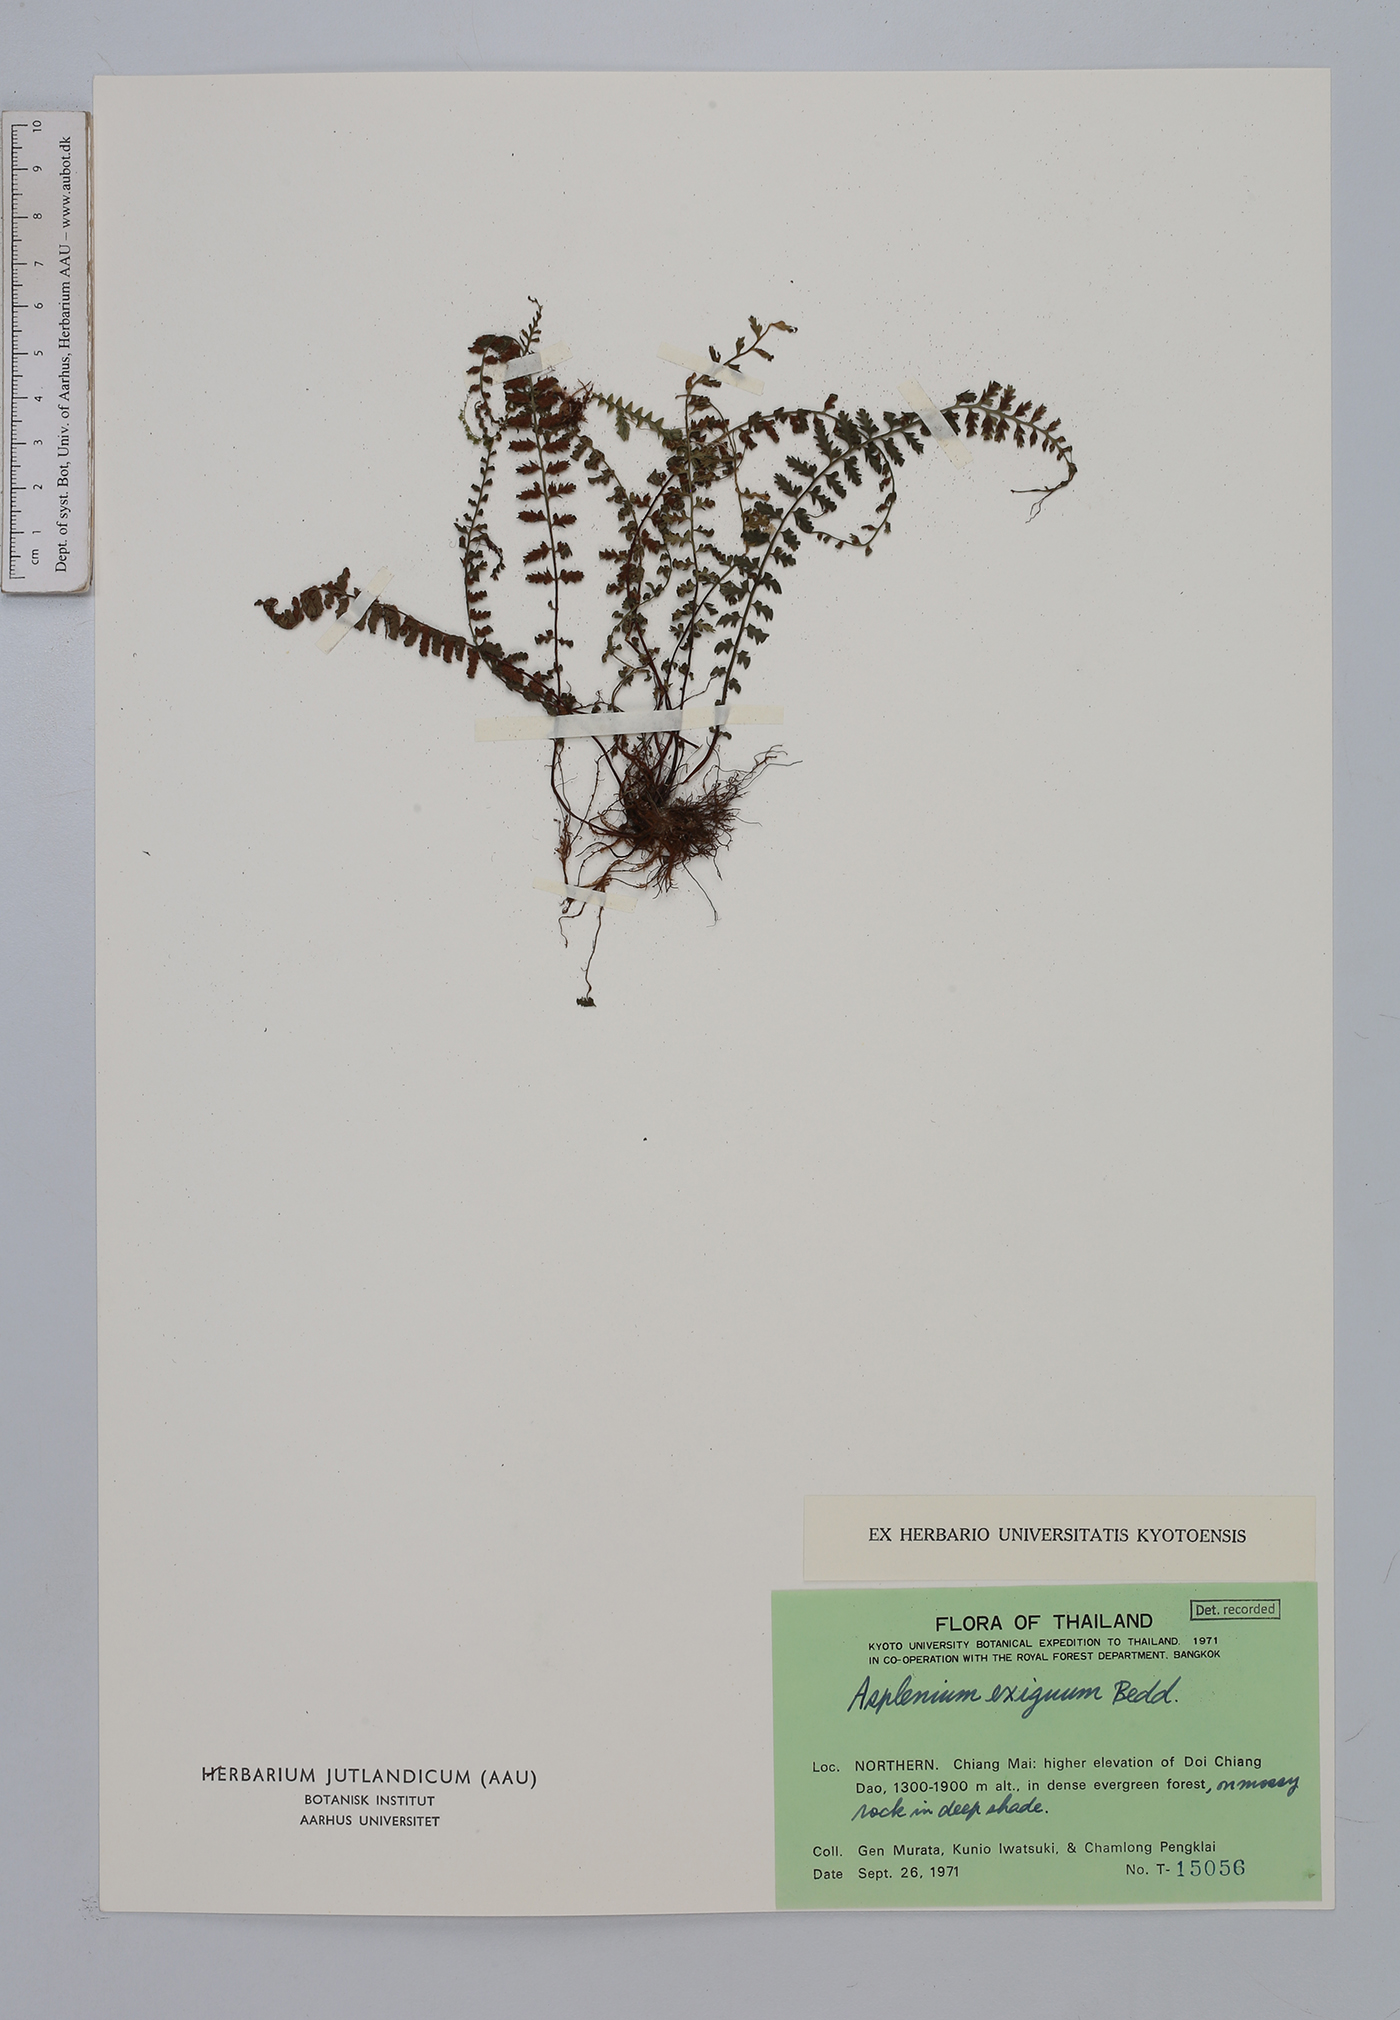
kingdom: Plantae
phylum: Tracheophyta
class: Polypodiopsida
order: Polypodiales
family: Aspleniaceae
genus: Hymenasplenium
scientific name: Hymenasplenium excisum
